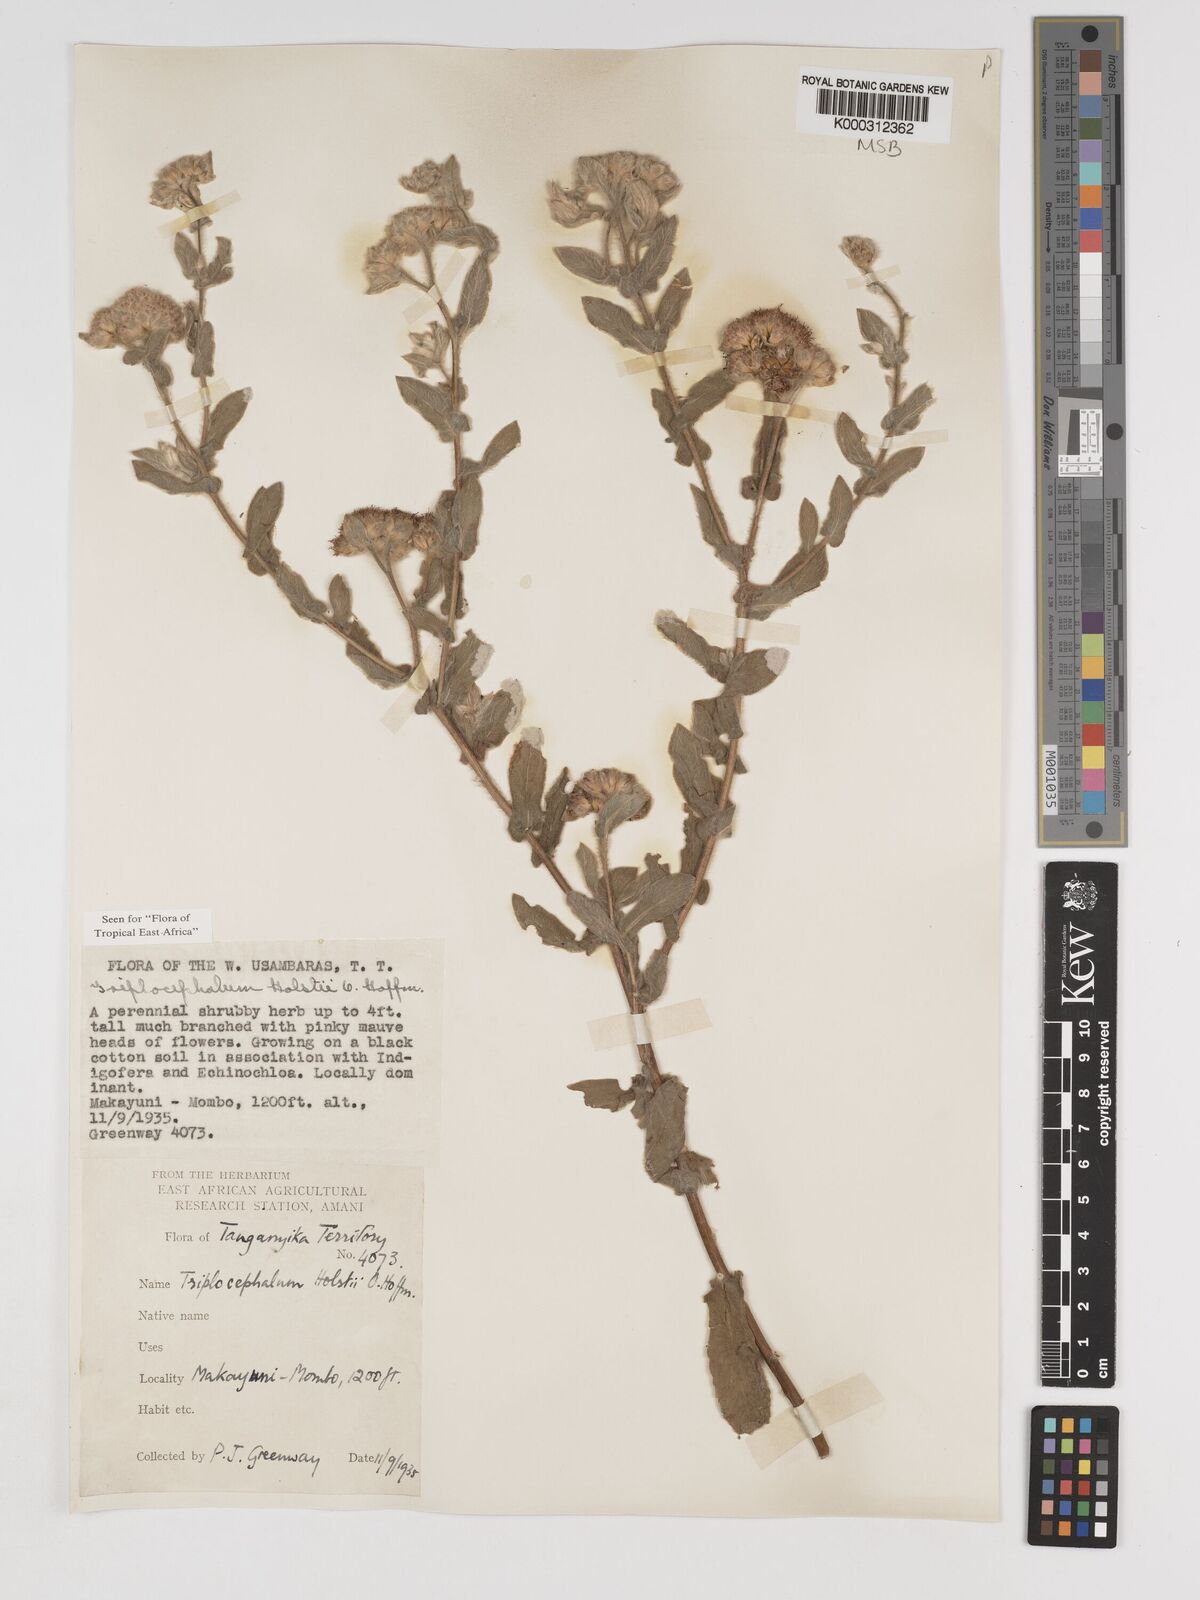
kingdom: Plantae
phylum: Tracheophyta
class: Magnoliopsida
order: Asterales
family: Asteraceae
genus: Triplocephalum
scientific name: Triplocephalum holstii
